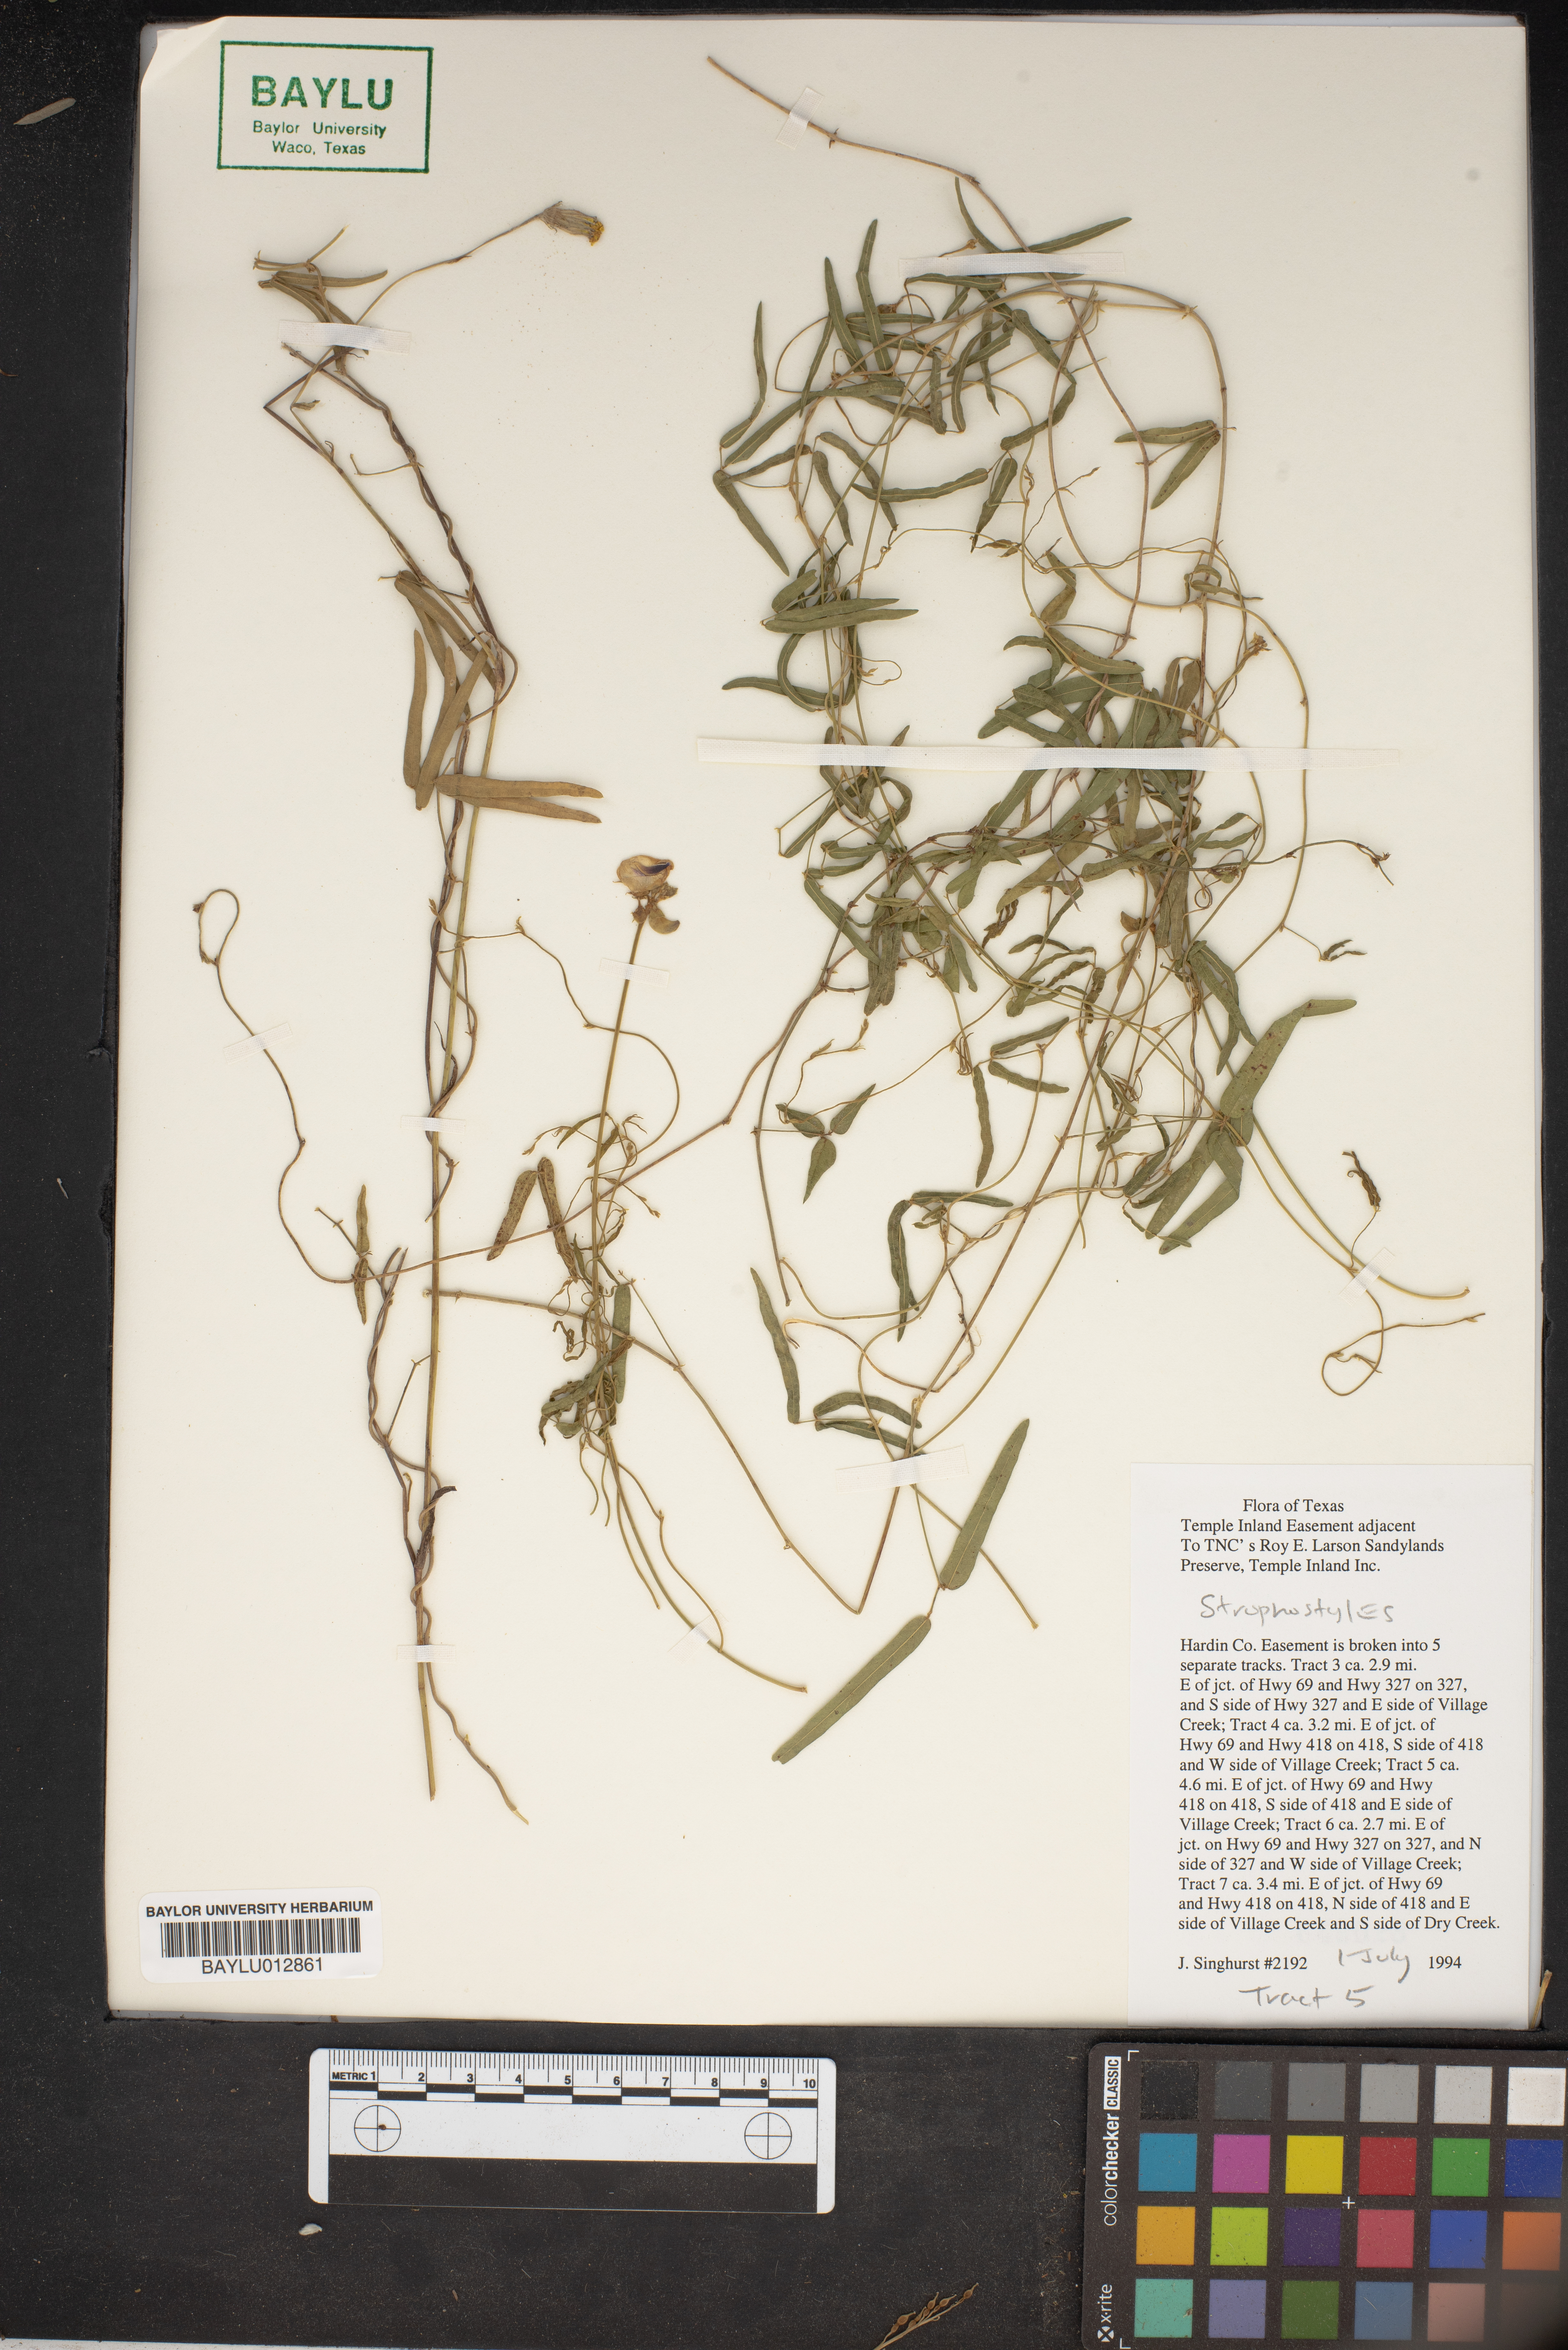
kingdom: Plantae
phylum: Tracheophyta
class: Magnoliopsida
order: Fabales
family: Fabaceae
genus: Strophostyles
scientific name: Strophostyles
